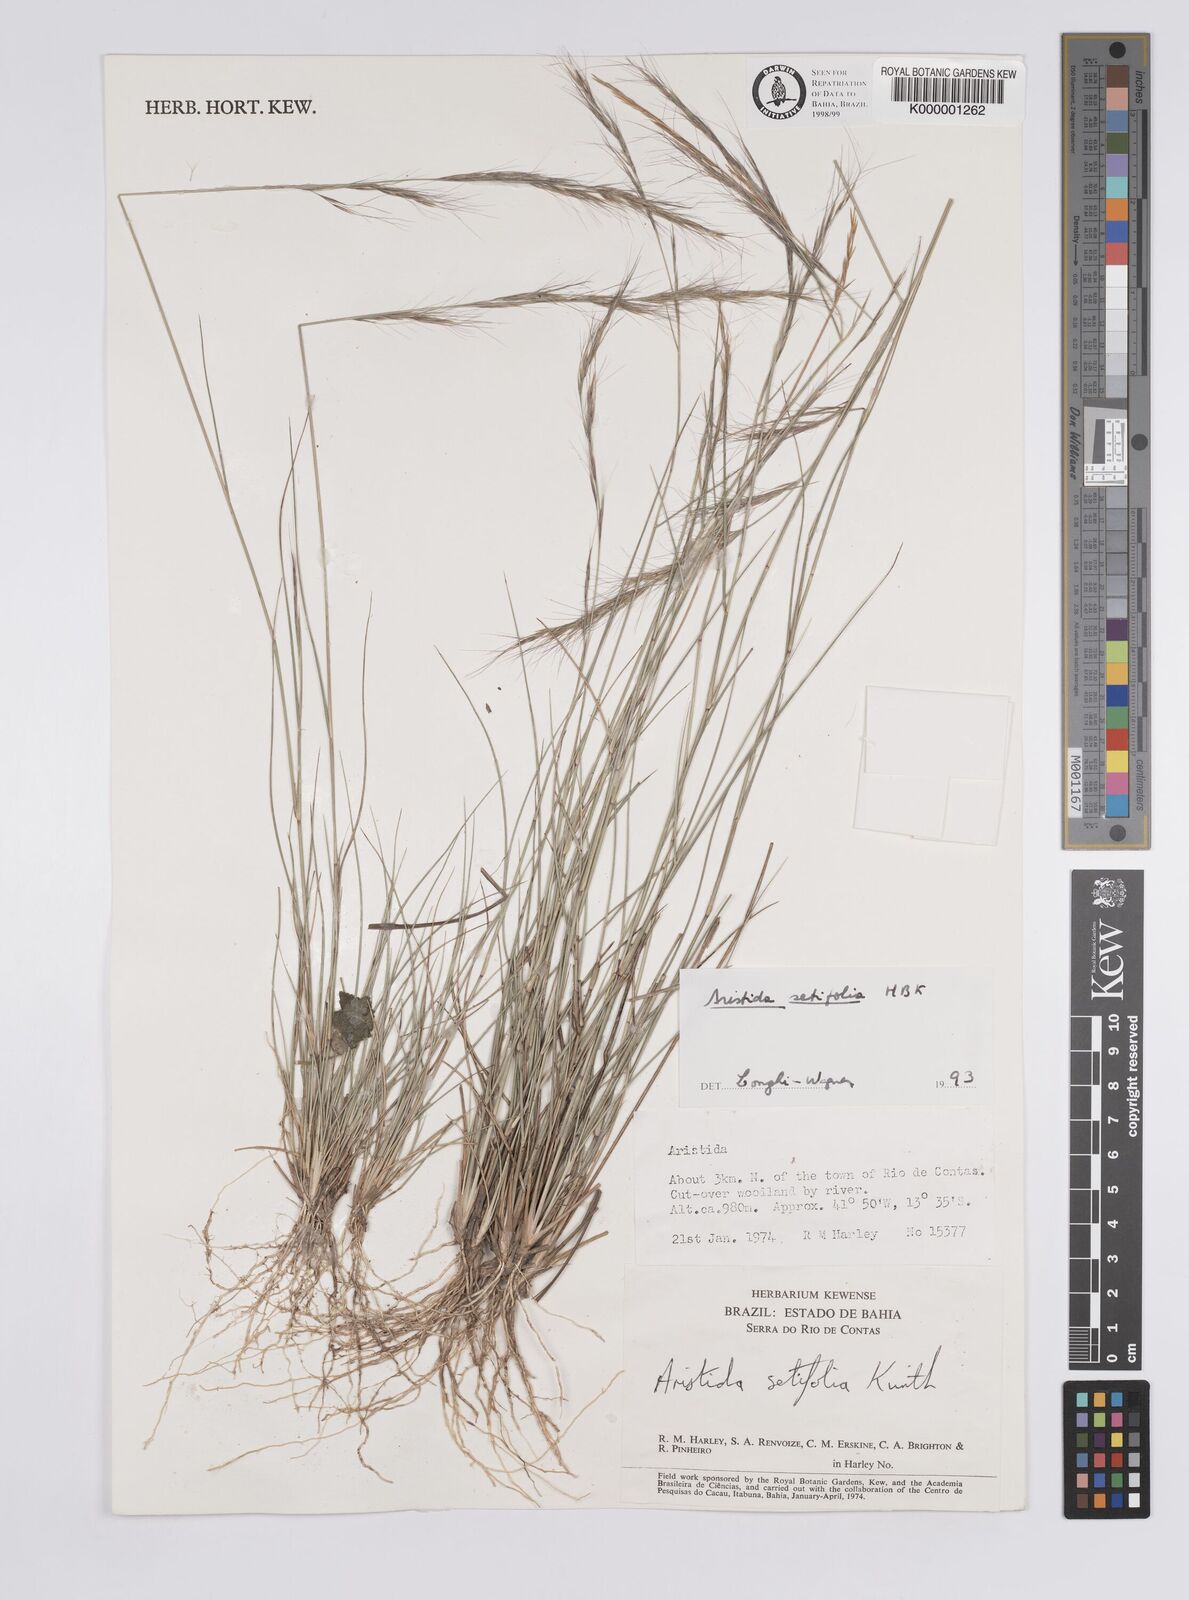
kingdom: Plantae
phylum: Tracheophyta
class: Liliopsida
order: Poales
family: Poaceae
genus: Aristida
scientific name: Aristida setifolia
